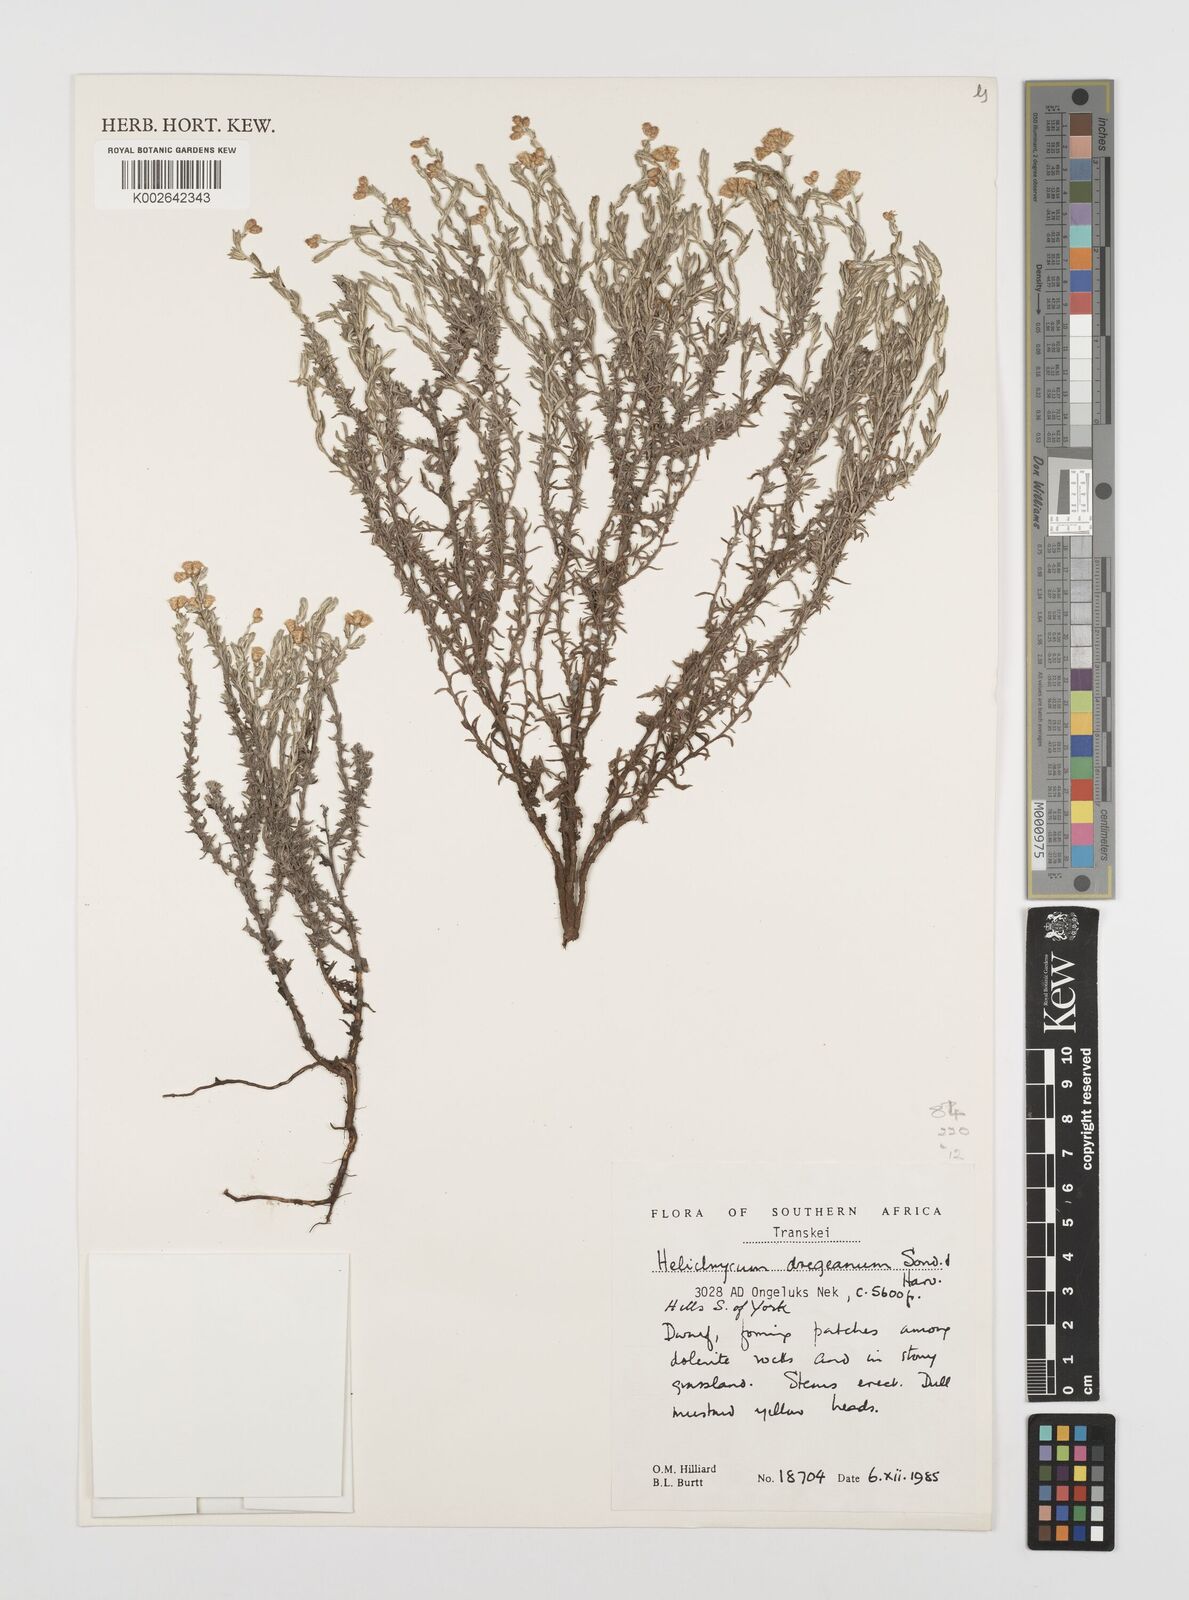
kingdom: Plantae
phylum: Tracheophyta
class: Magnoliopsida
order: Asterales
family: Asteraceae
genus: Helichrysum
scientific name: Helichrysum dregeanum
